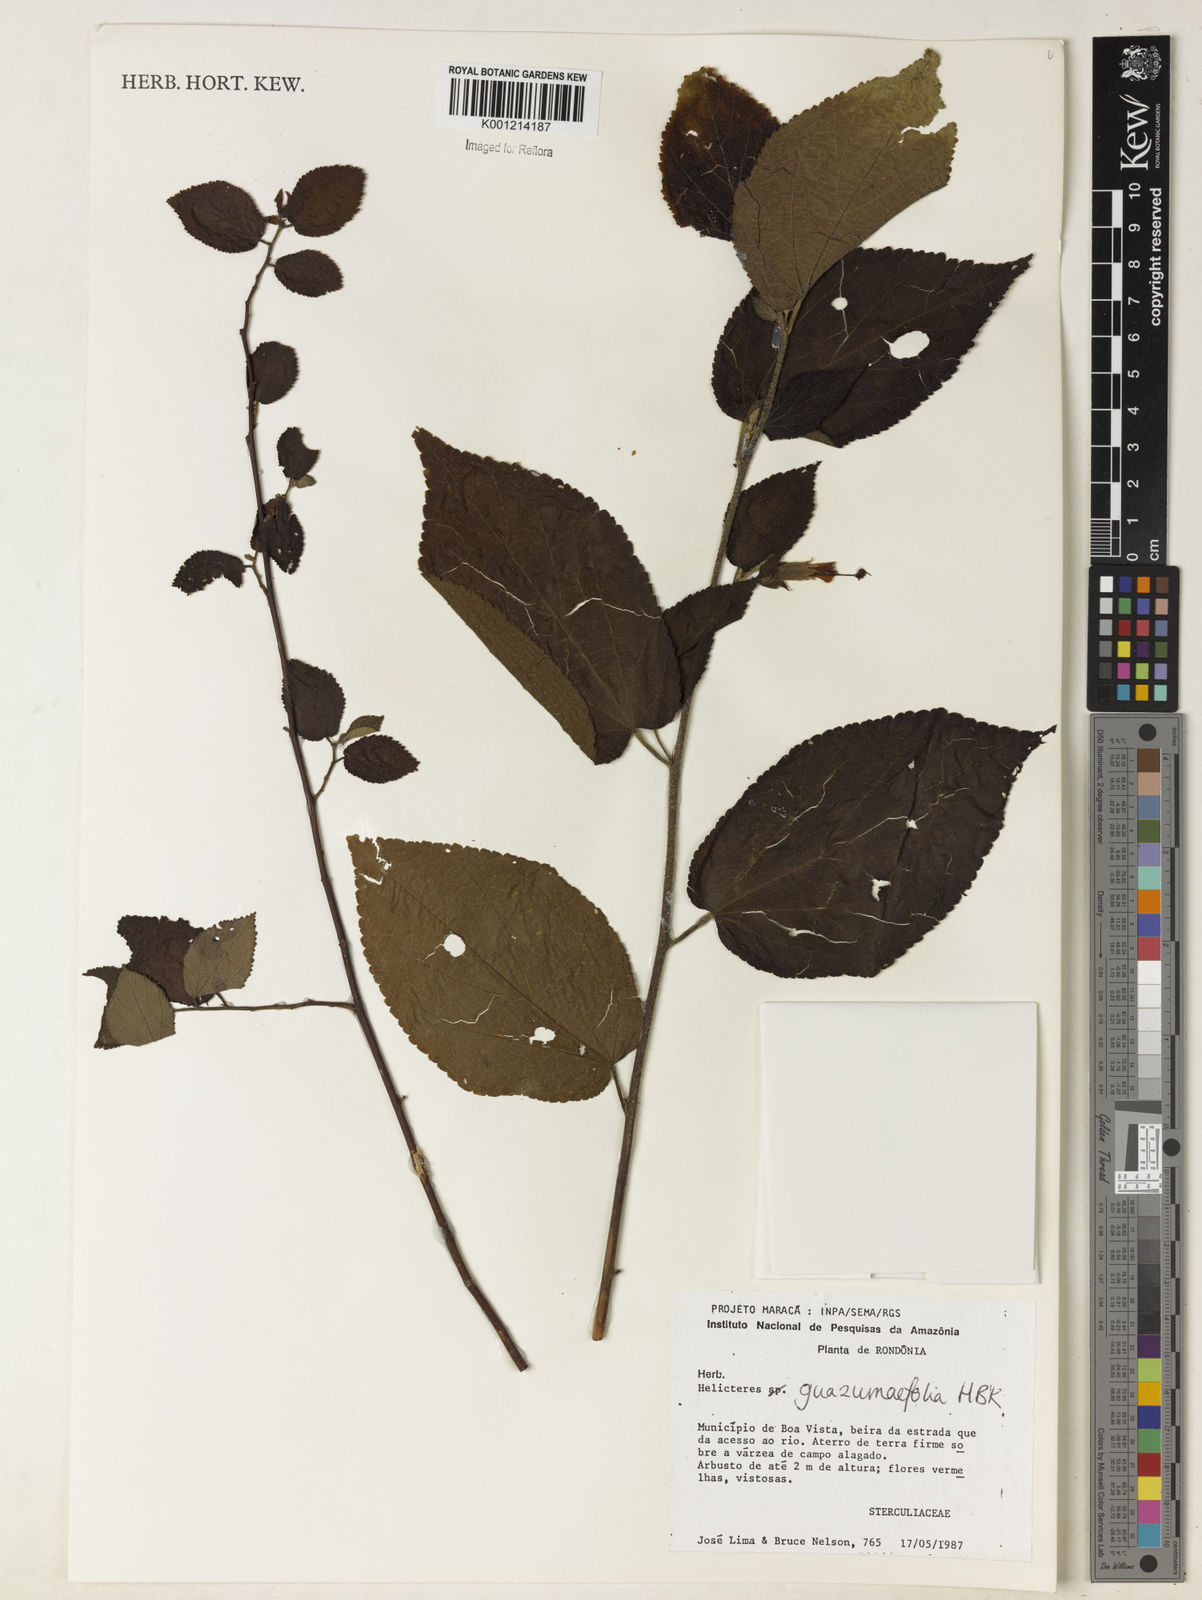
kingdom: Plantae
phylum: Tracheophyta
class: Magnoliopsida
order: Malvales
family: Malvaceae
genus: Helicteres
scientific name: Helicteres guazumifolia
